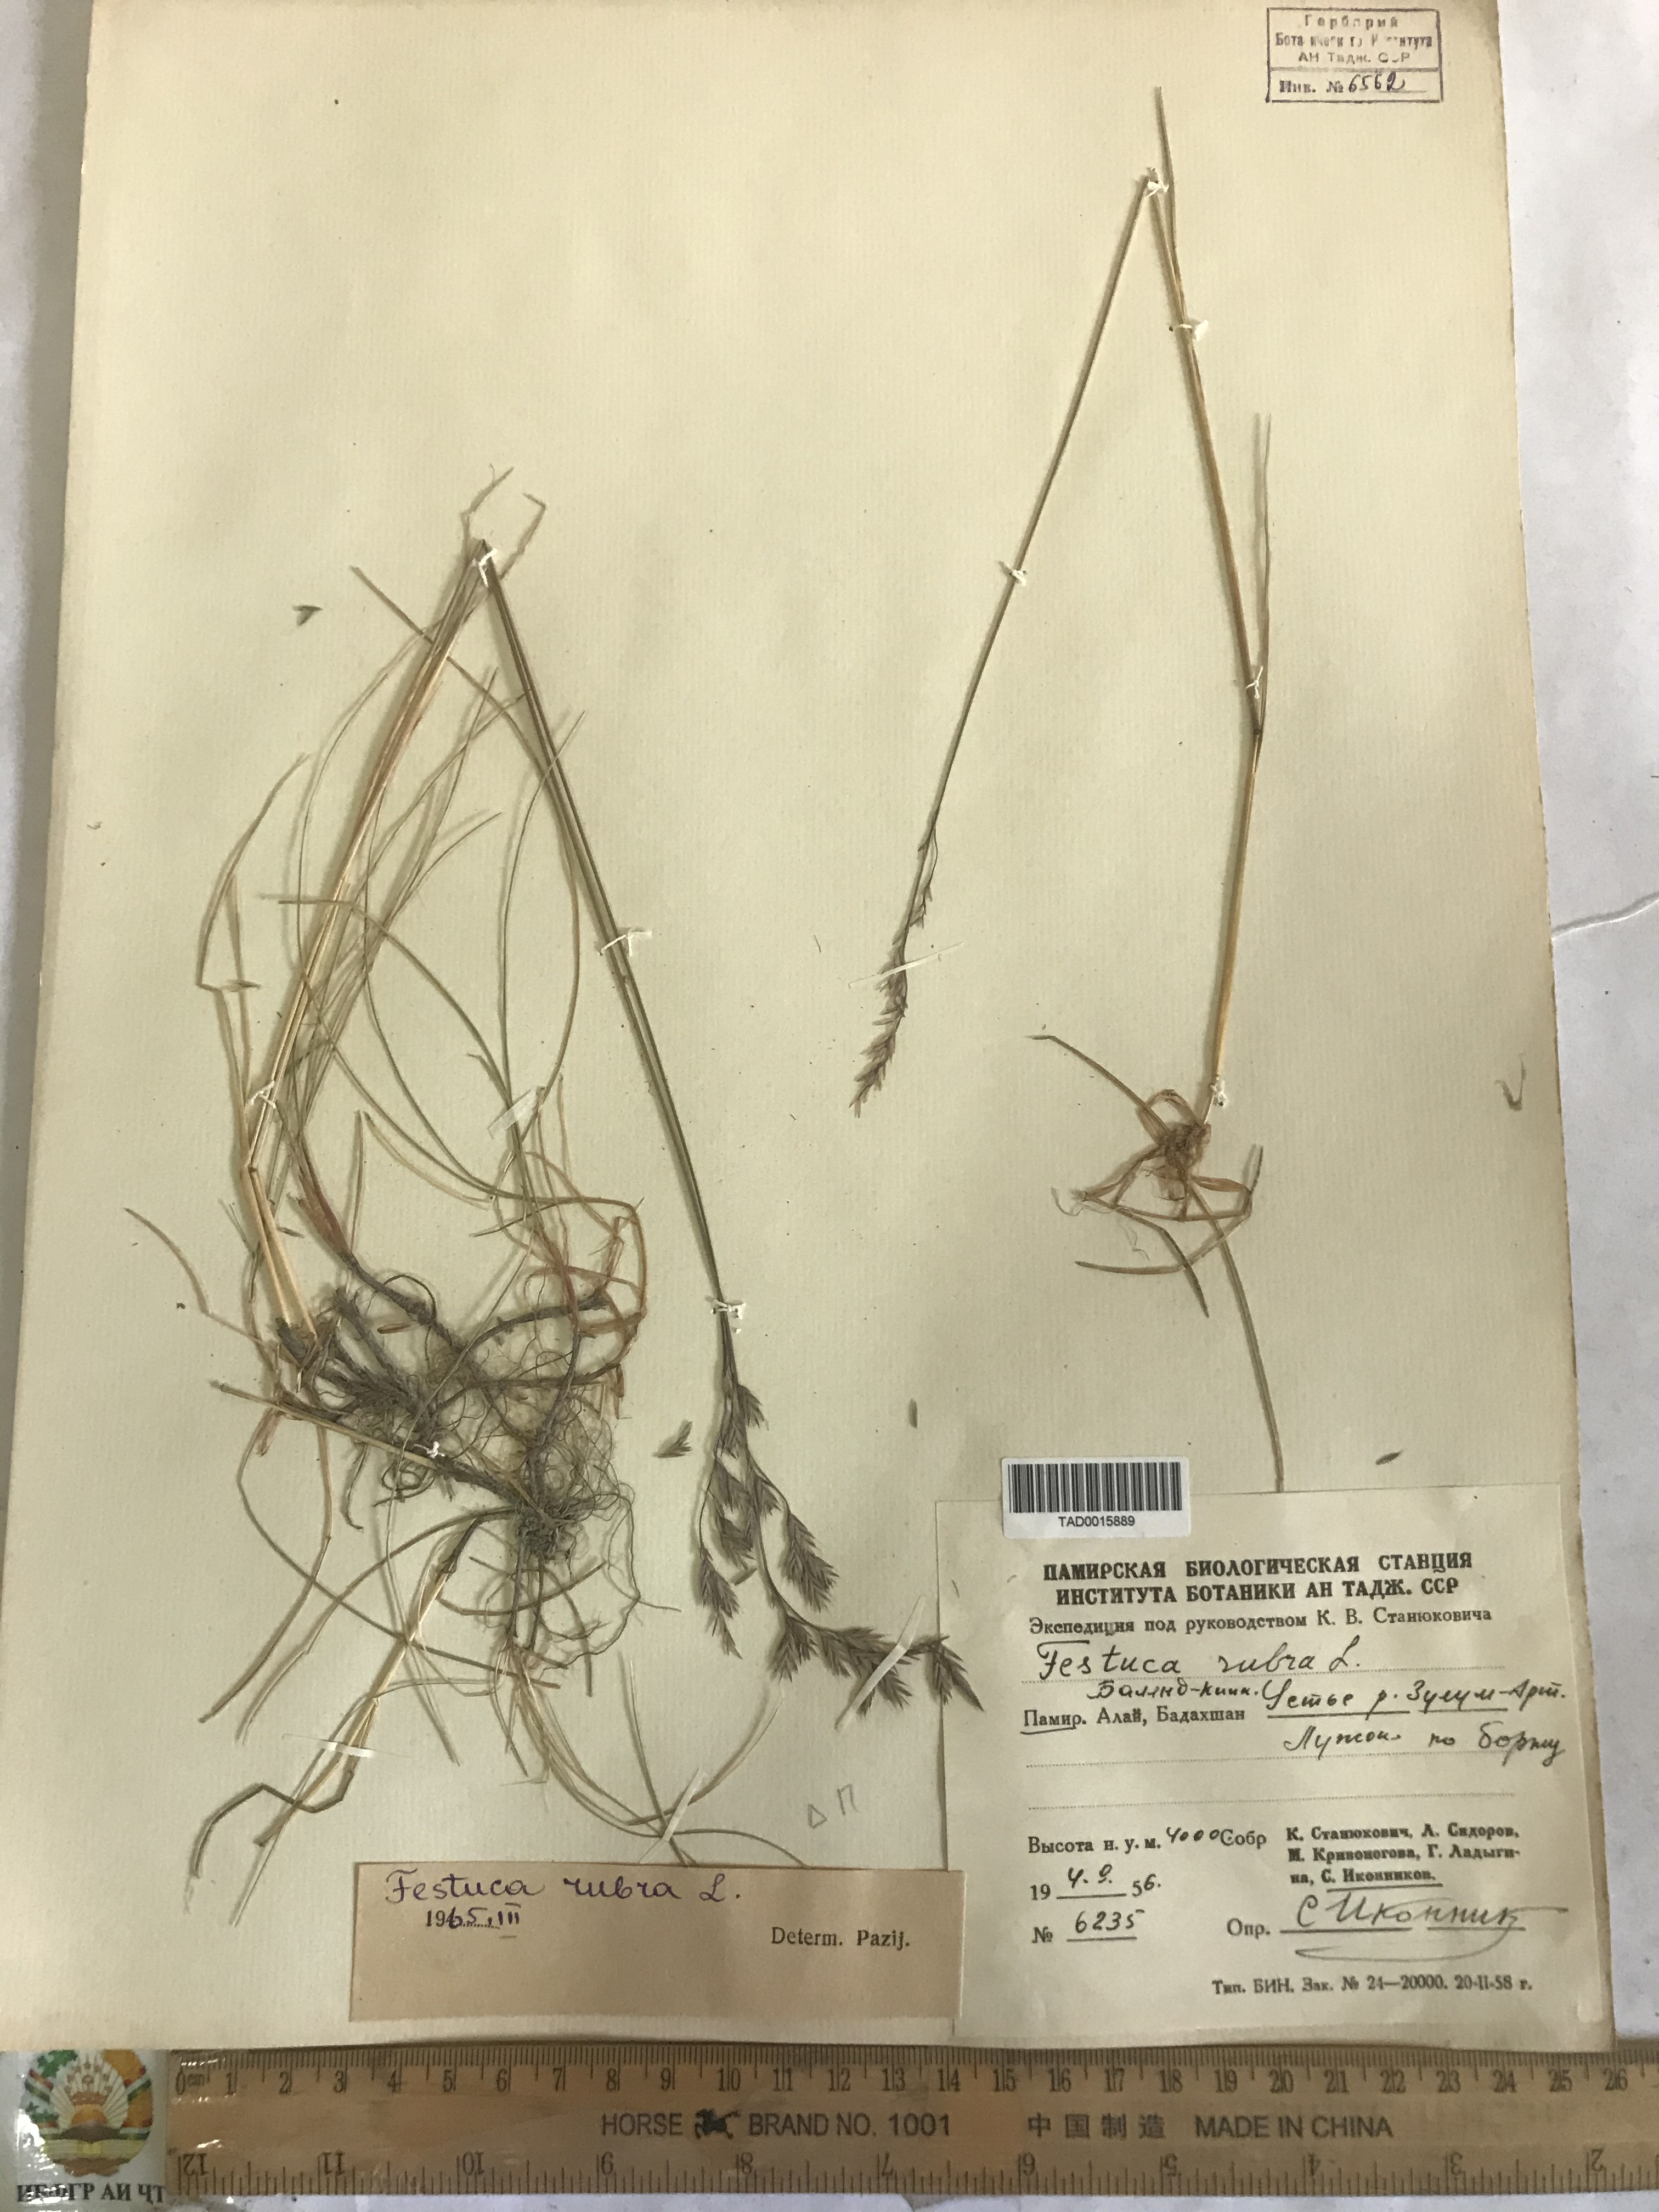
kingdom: Plantae
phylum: Tracheophyta
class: Liliopsida
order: Poales
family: Poaceae
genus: Festuca
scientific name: Festuca rubra
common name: Red fescue
